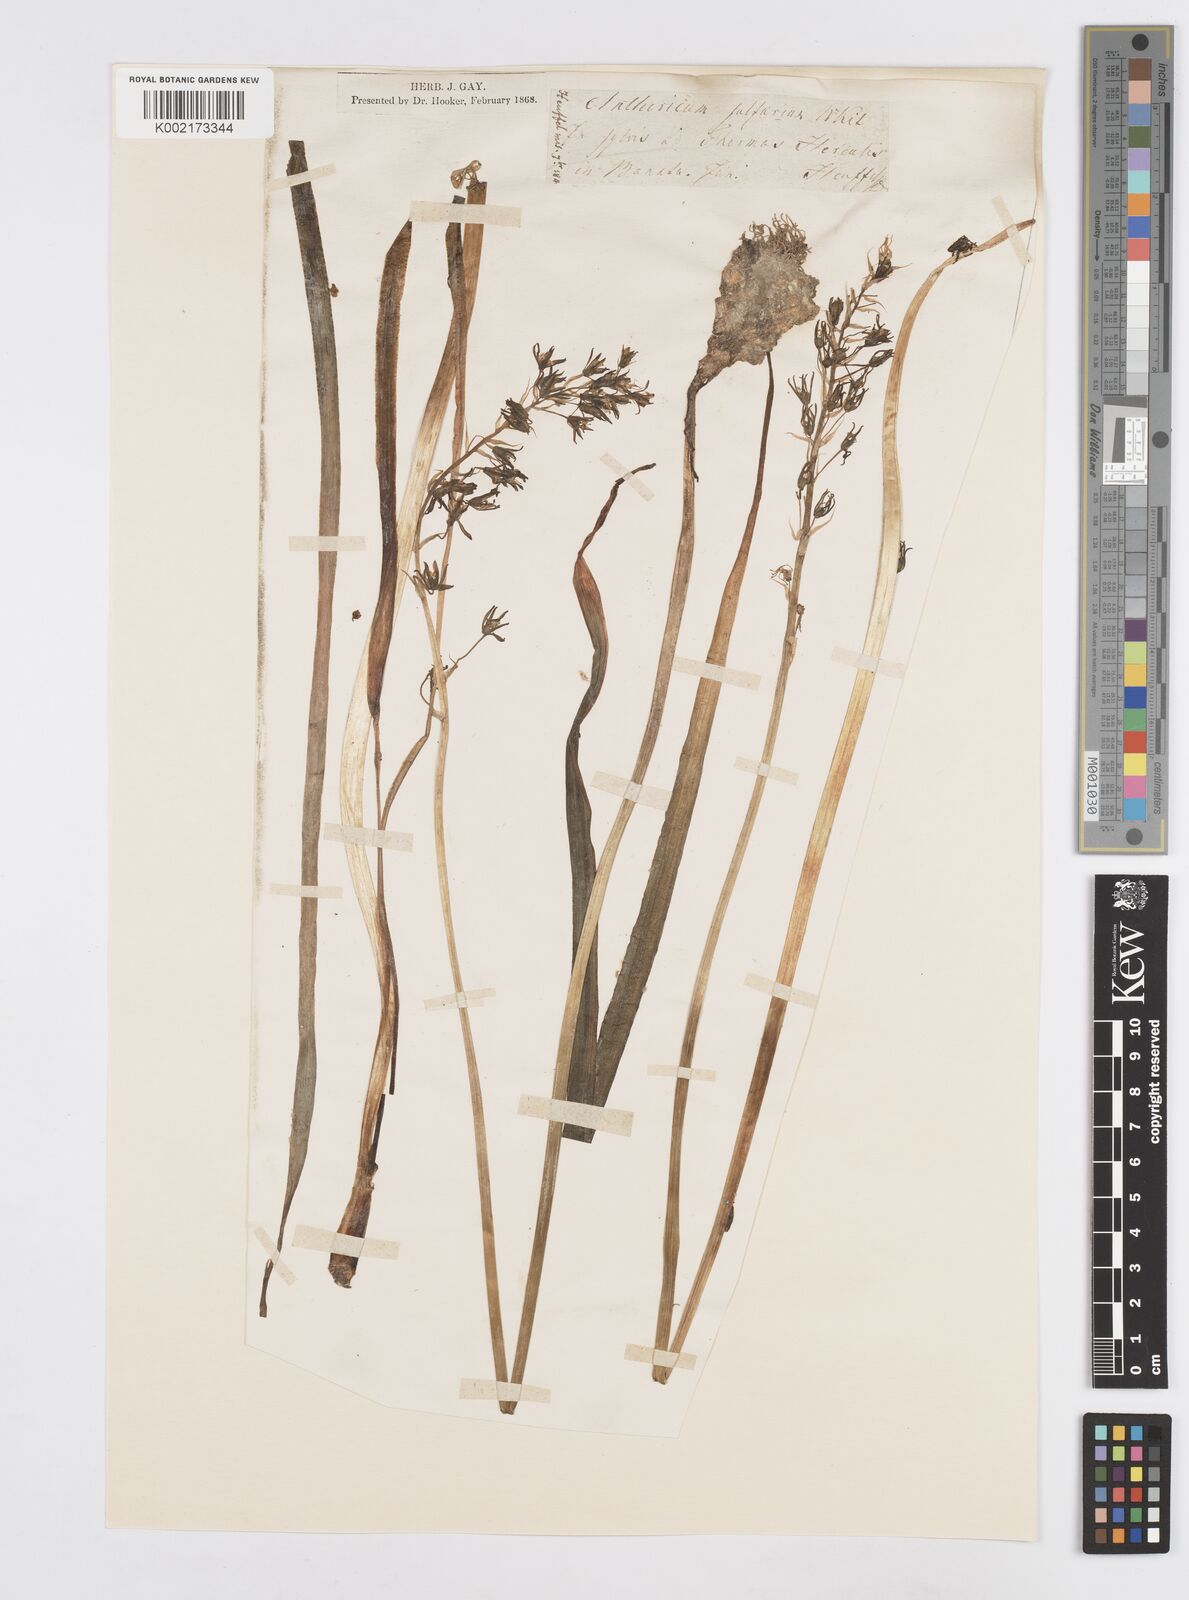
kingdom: Plantae
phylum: Tracheophyta
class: Liliopsida
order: Asparagales
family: Asparagaceae
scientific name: Asparagaceae
